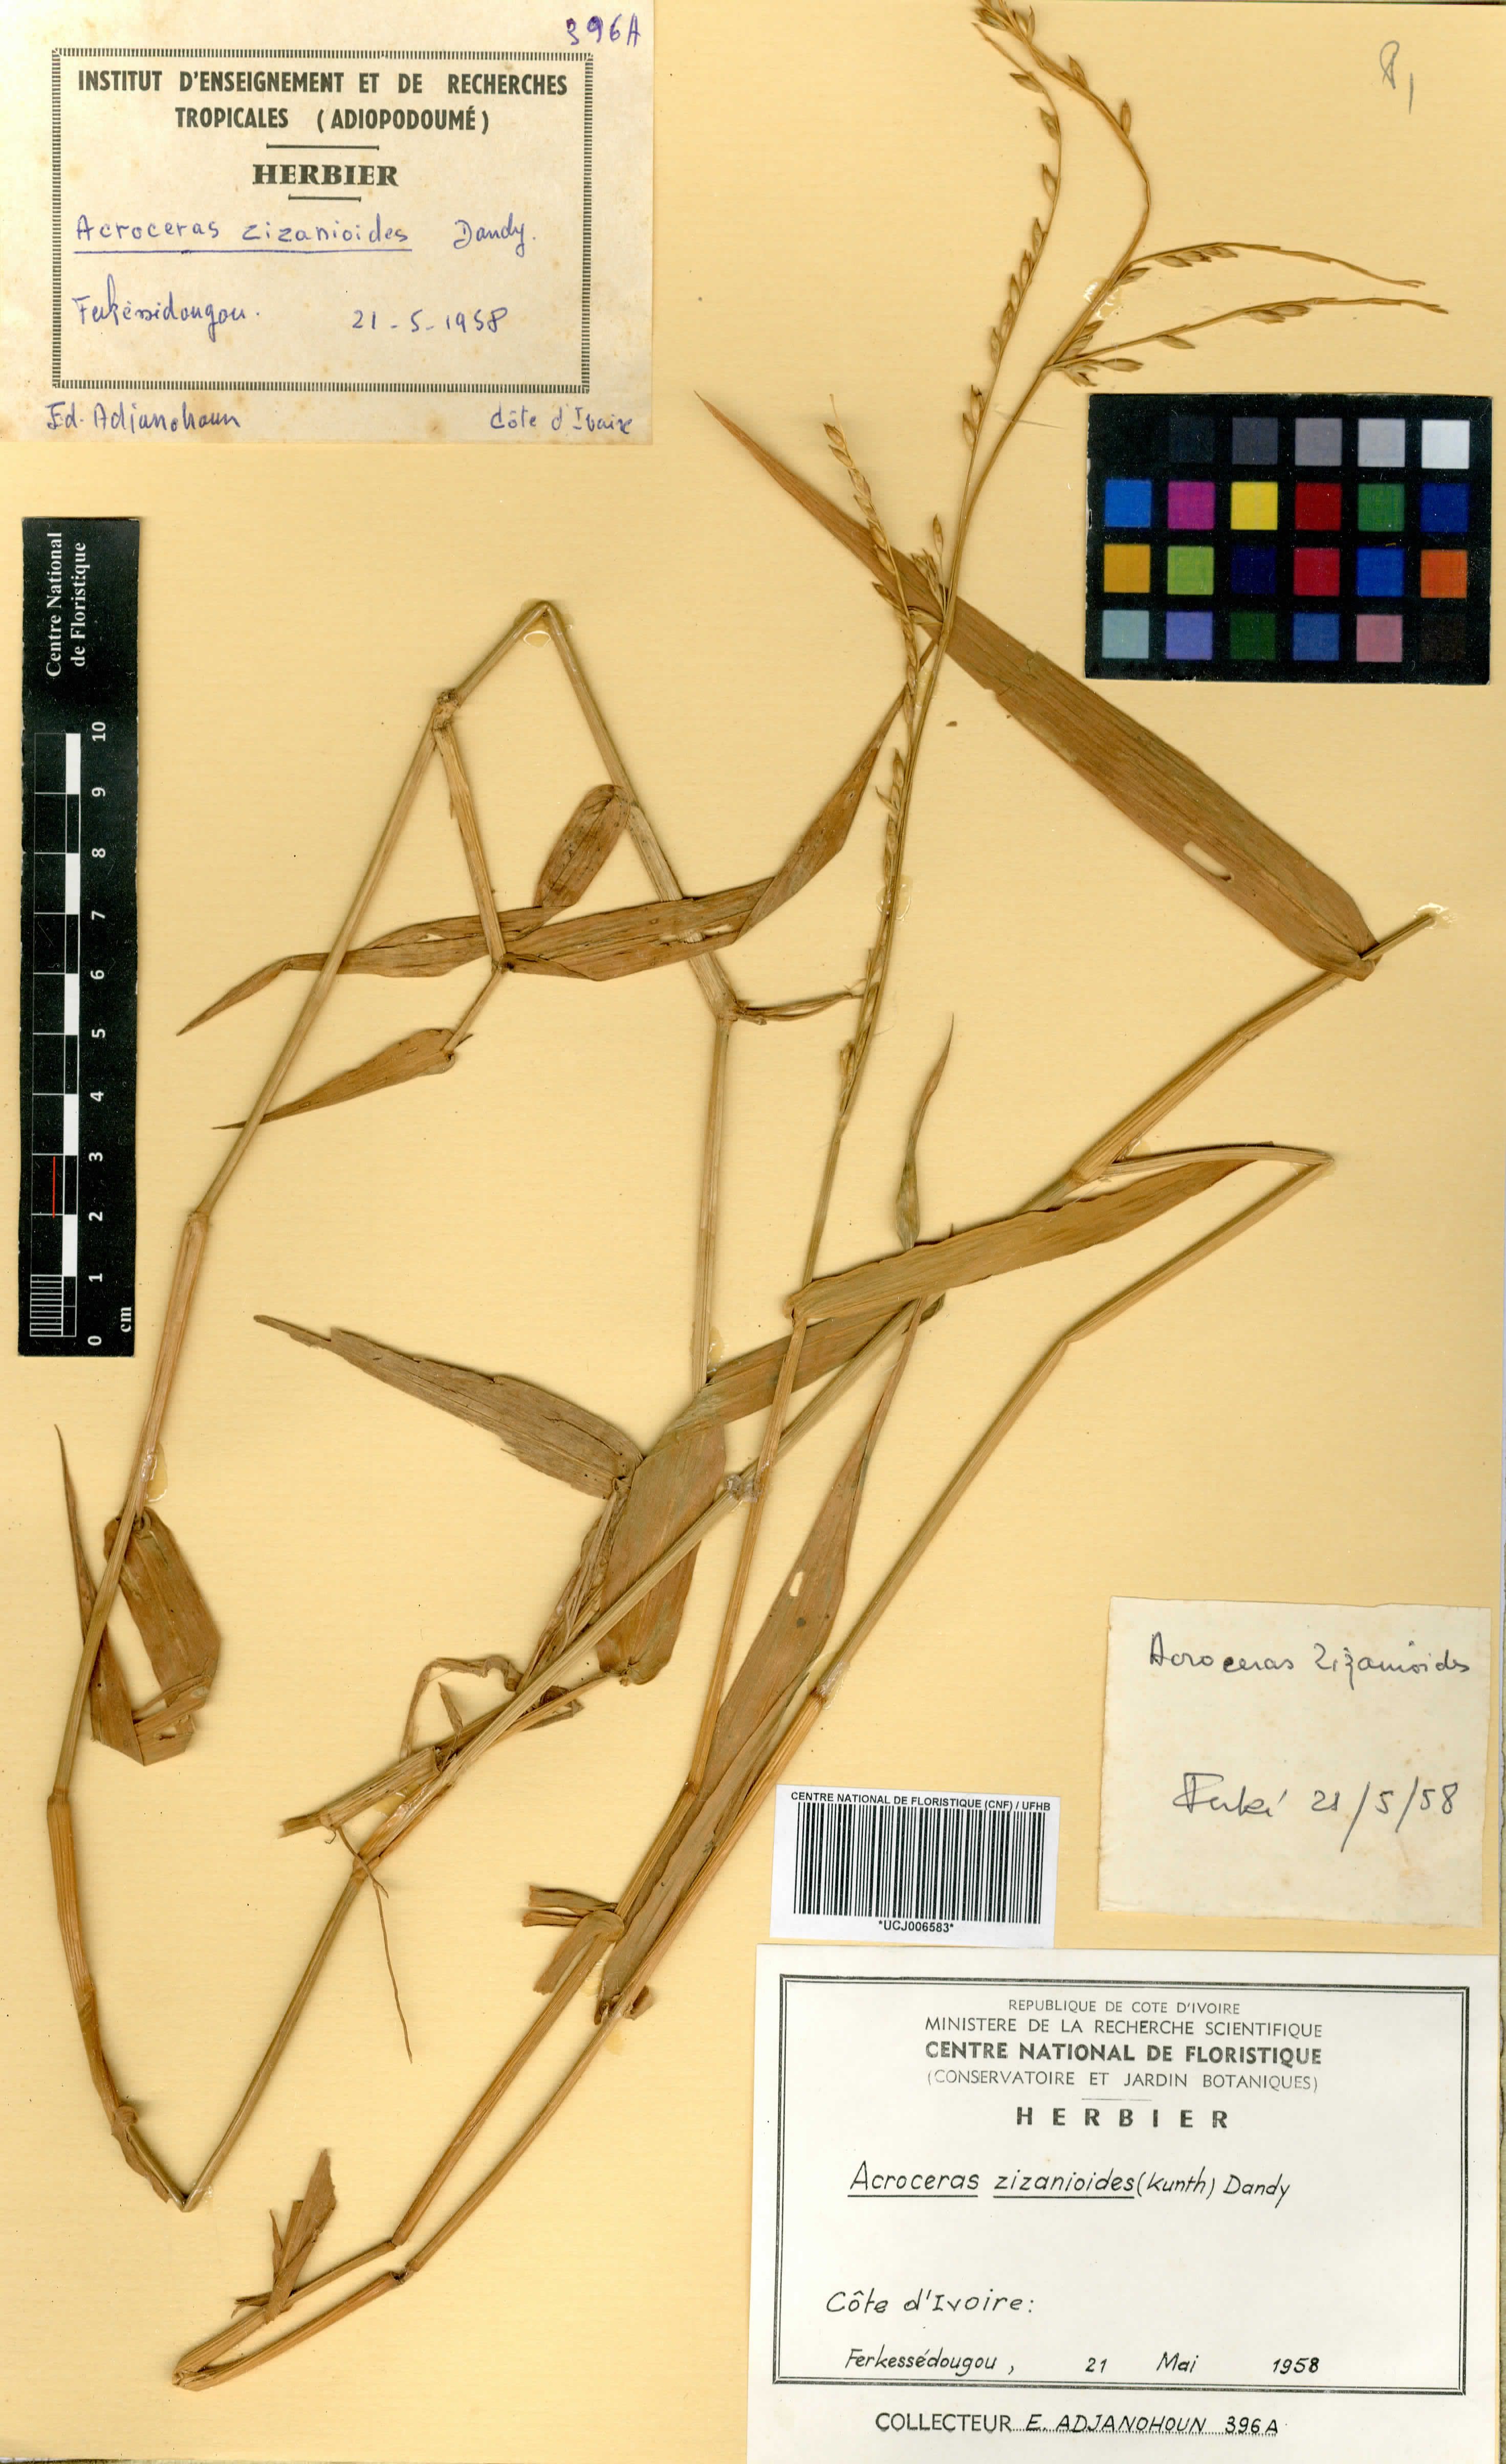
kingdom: Plantae
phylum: Tracheophyta
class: Liliopsida
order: Poales
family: Poaceae
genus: Acroceras
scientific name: Acroceras zizanioides
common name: Oat grass
